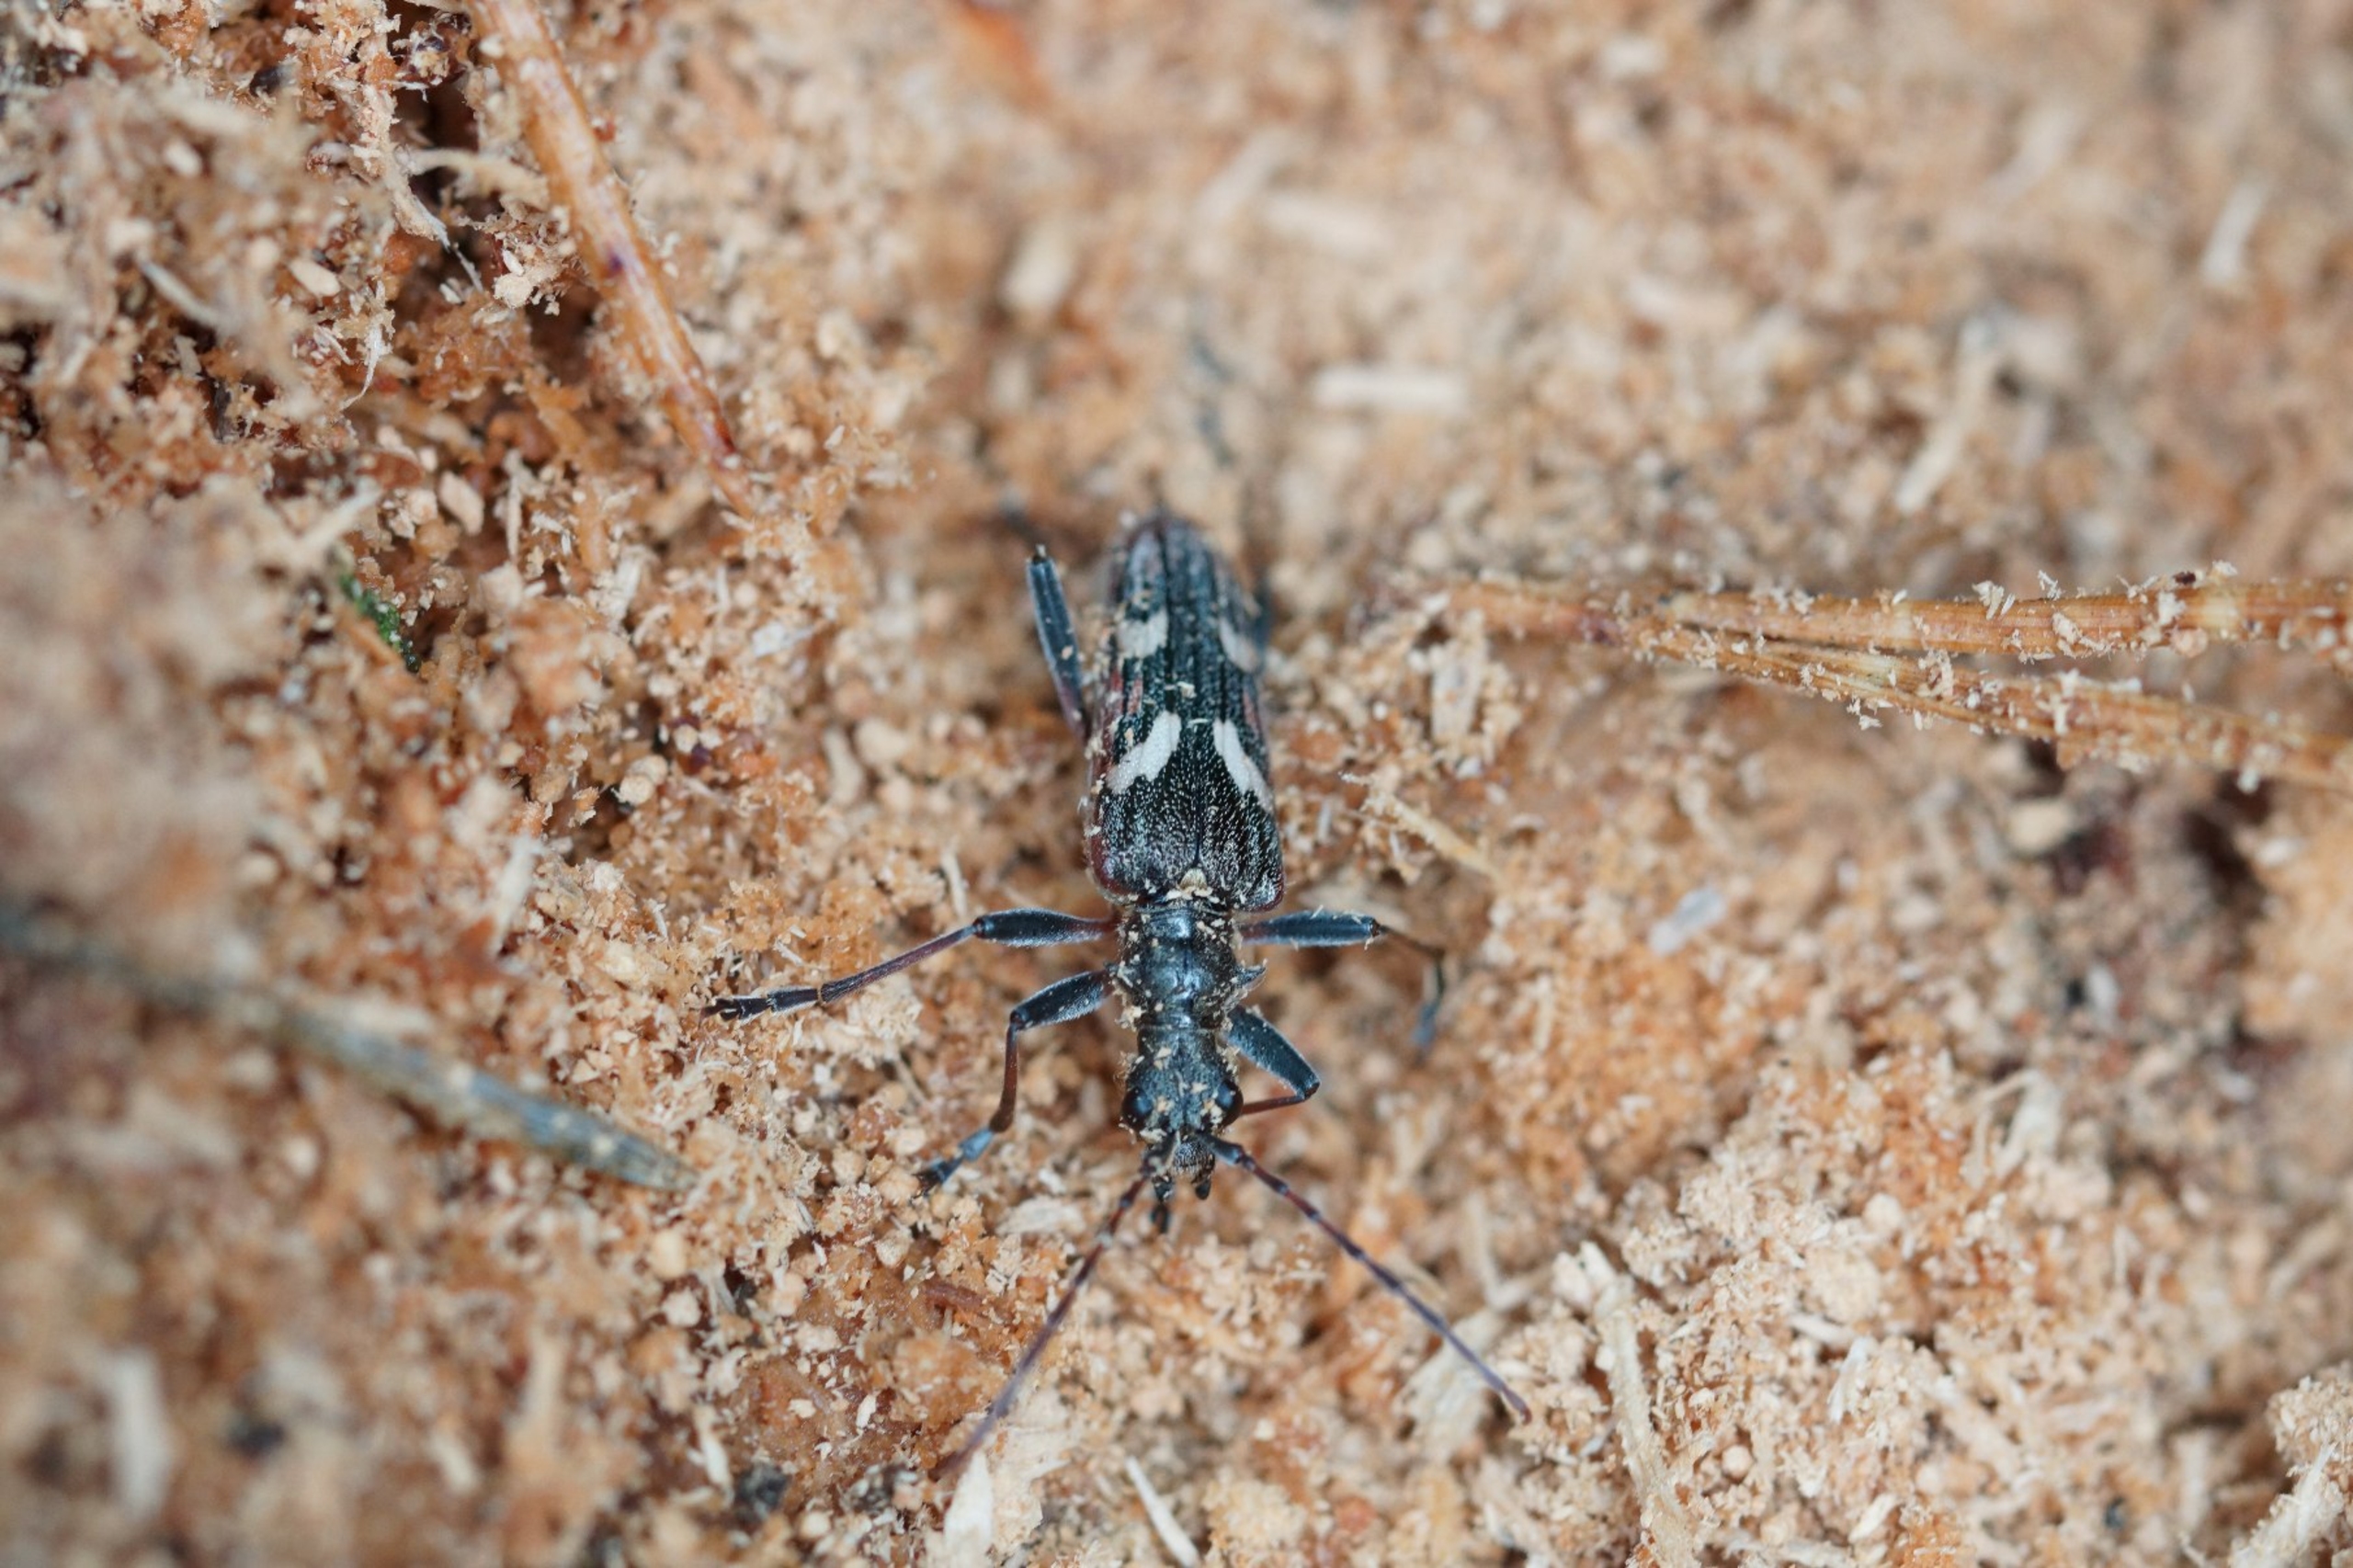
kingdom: Animalia
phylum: Arthropoda
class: Insecta
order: Coleoptera
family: Cerambycidae
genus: Rhagium
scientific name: Rhagium bifasciatum
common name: Båndet tandbuk
